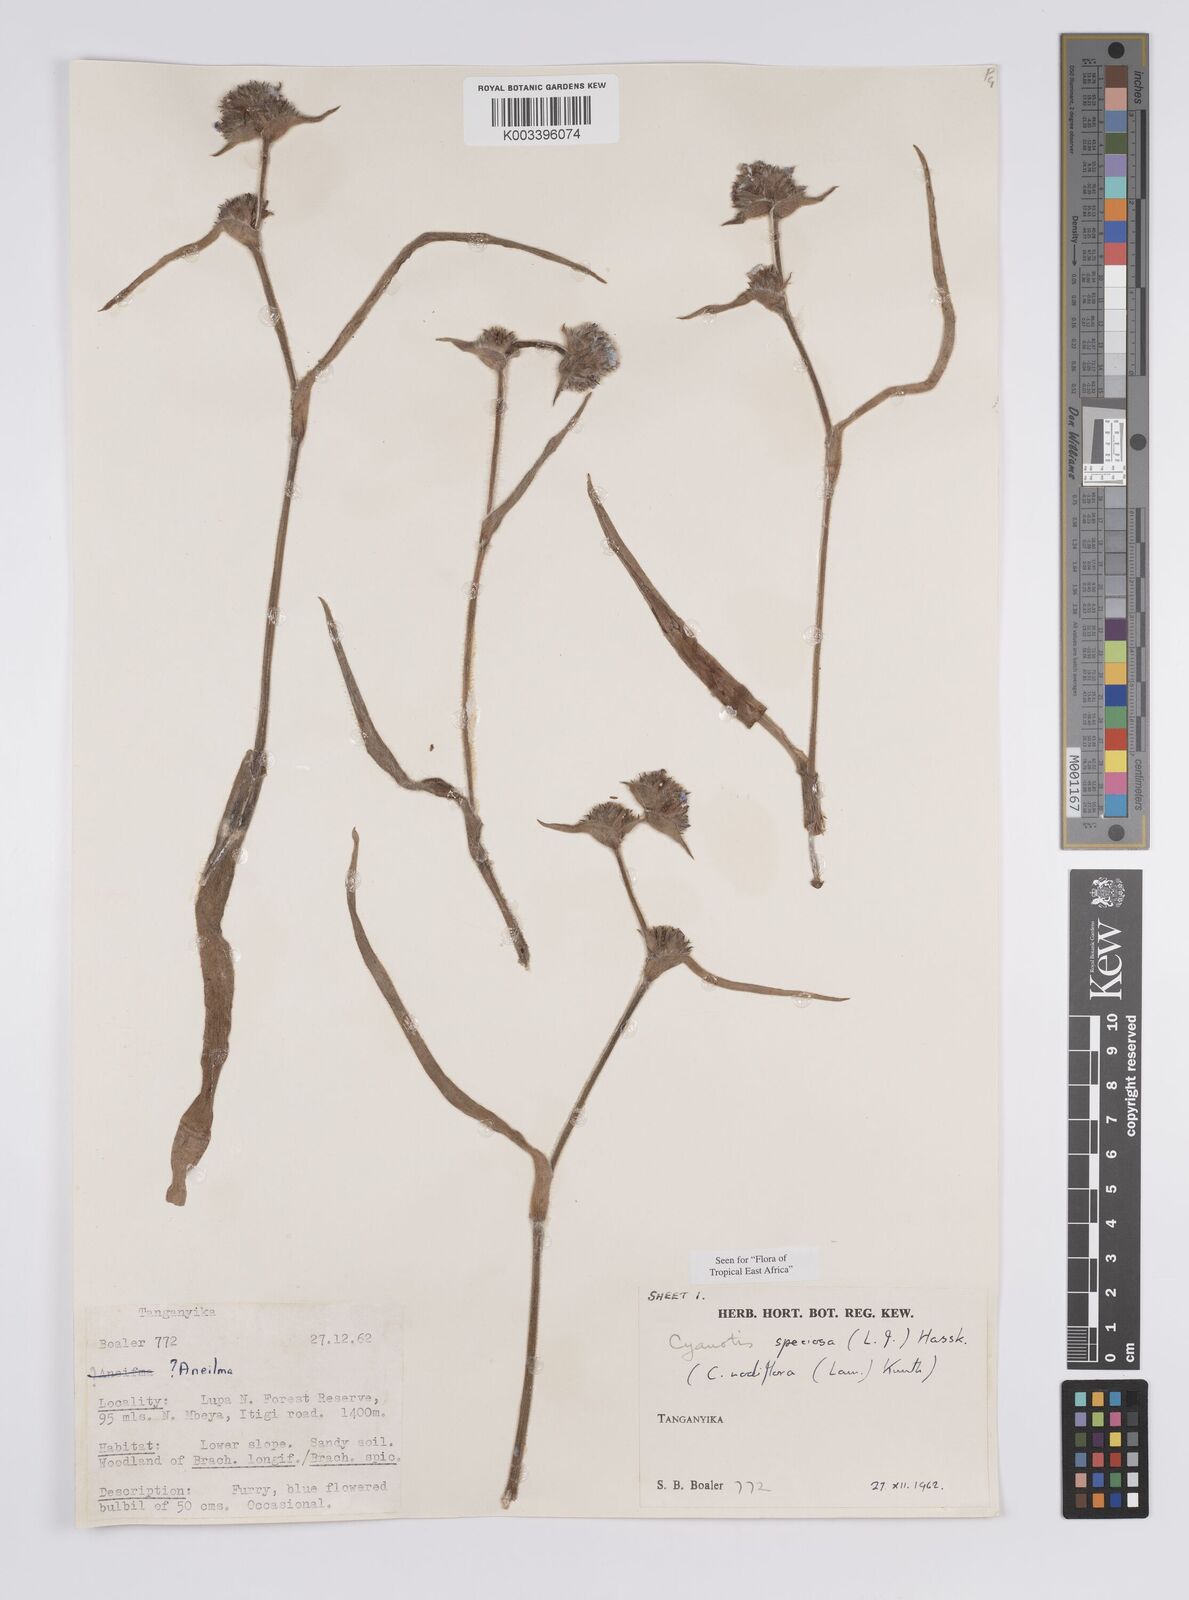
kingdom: Plantae
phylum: Tracheophyta
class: Liliopsida
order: Commelinales
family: Commelinaceae
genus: Cyanotis
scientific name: Cyanotis speciosa
